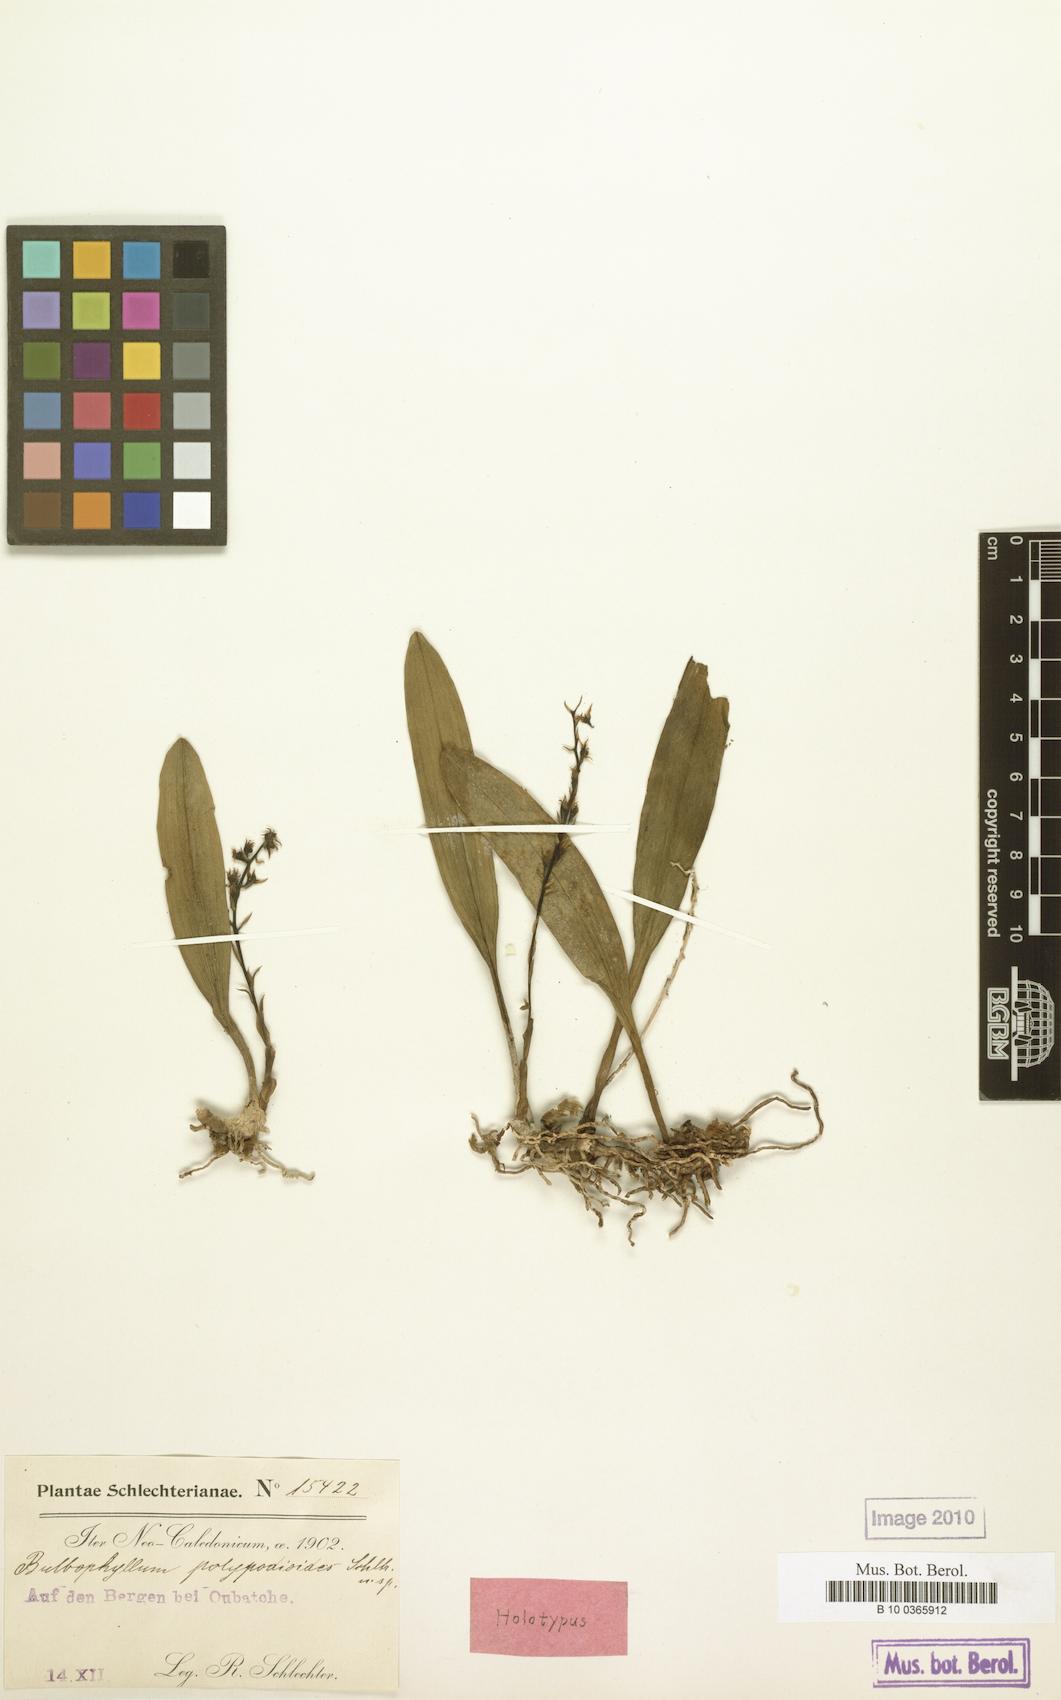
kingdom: Plantae
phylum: Tracheophyta
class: Liliopsida
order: Asparagales
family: Orchidaceae
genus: Bulbophyllum
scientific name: Bulbophyllum apodum
